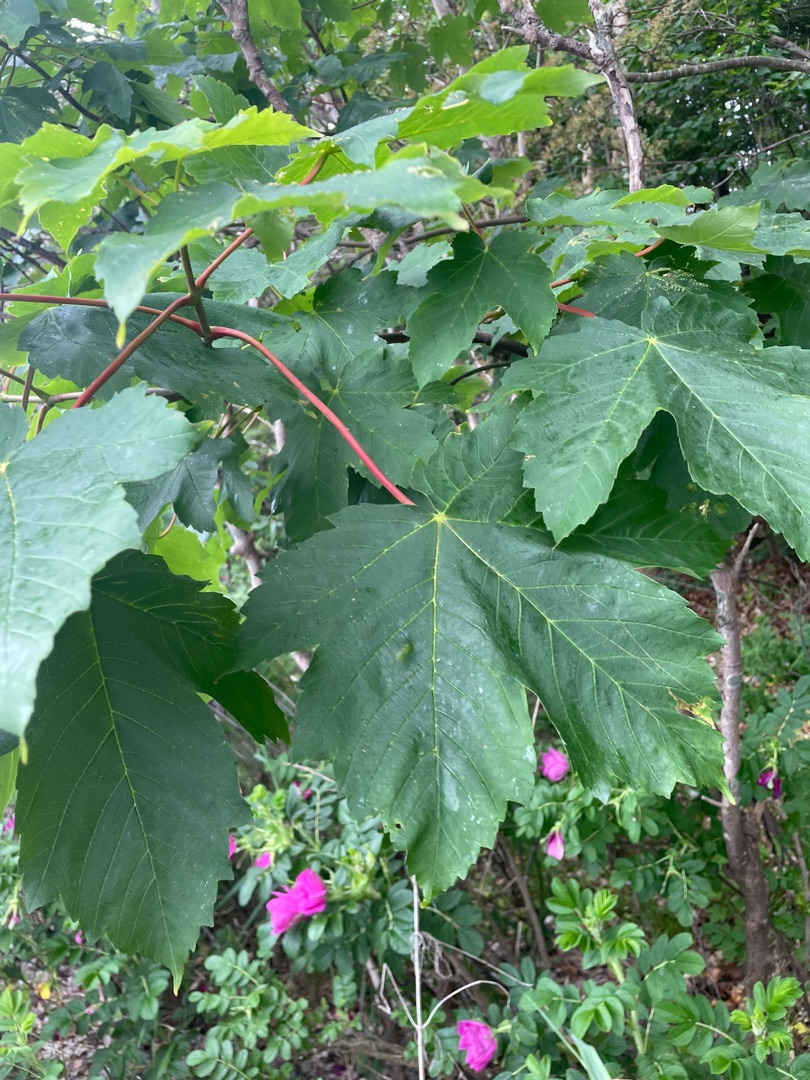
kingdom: Plantae
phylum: Tracheophyta
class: Magnoliopsida
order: Sapindales
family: Sapindaceae
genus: Acer
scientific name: Acer pseudoplatanus
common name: Ahorn
